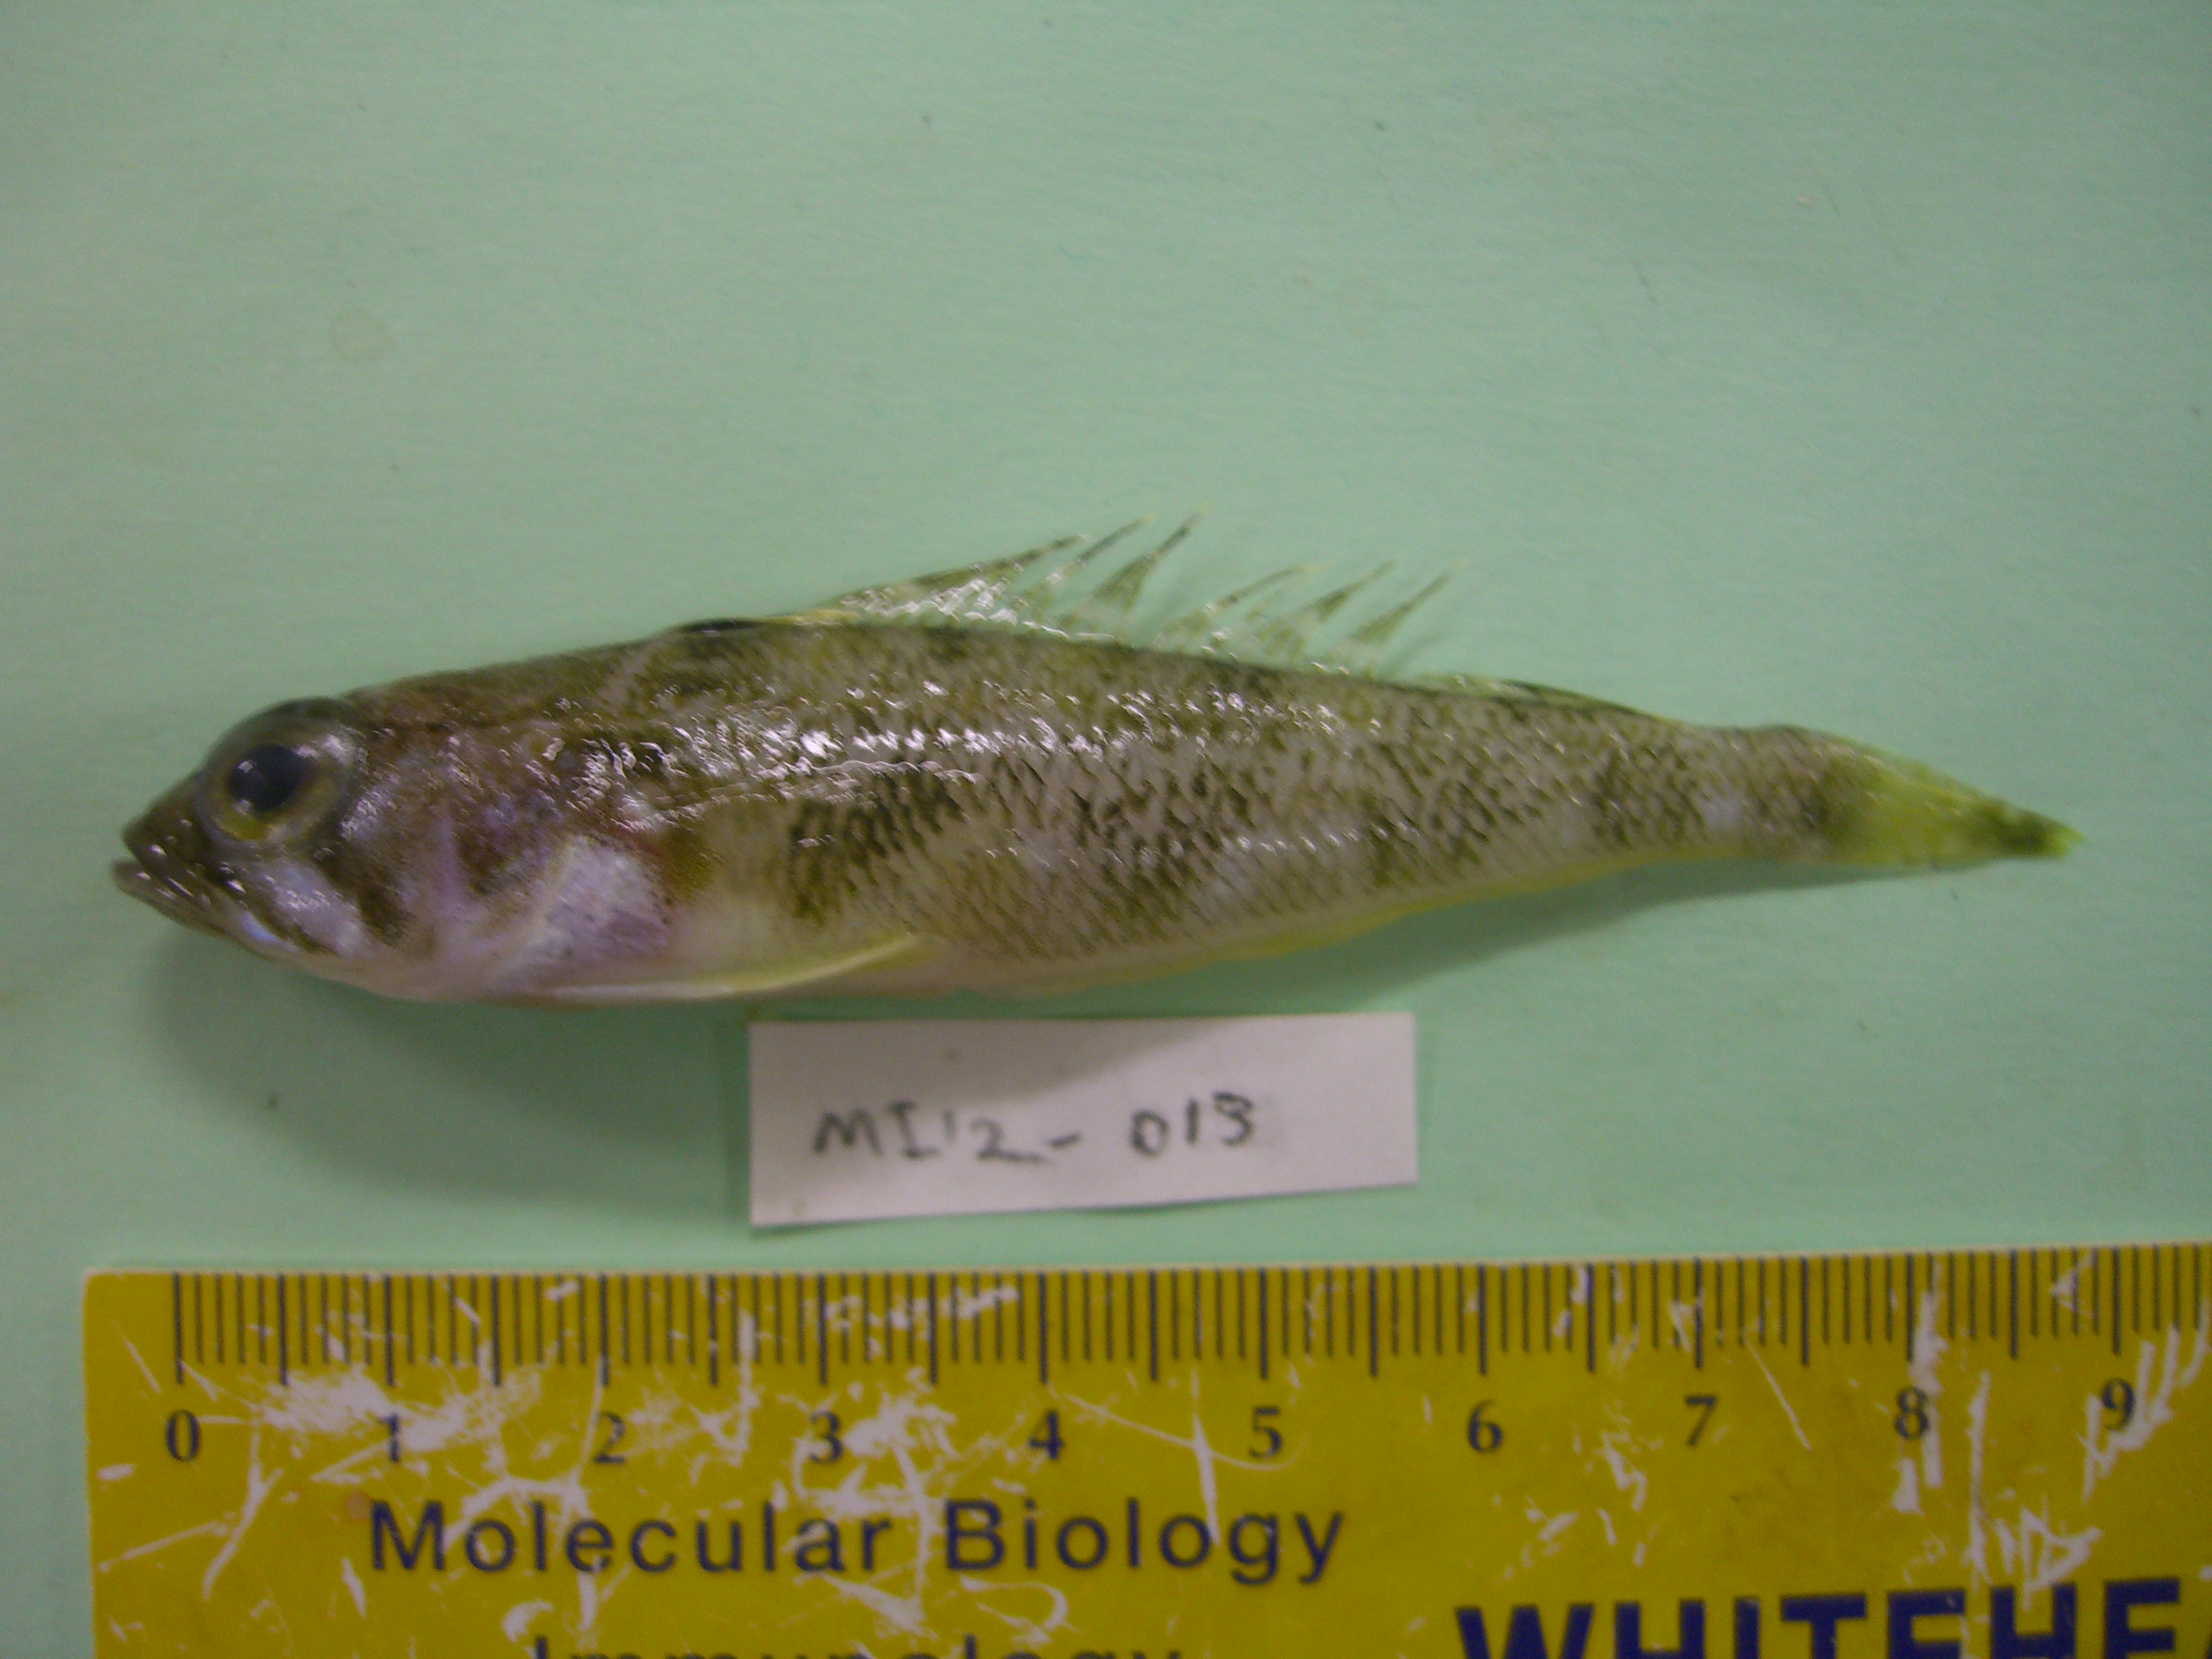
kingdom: Animalia
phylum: Chordata
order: Perciformes
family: Nototheniidae
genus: Lepidonotothen
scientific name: Lepidonotothen squamifrons
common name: Grey notothen
